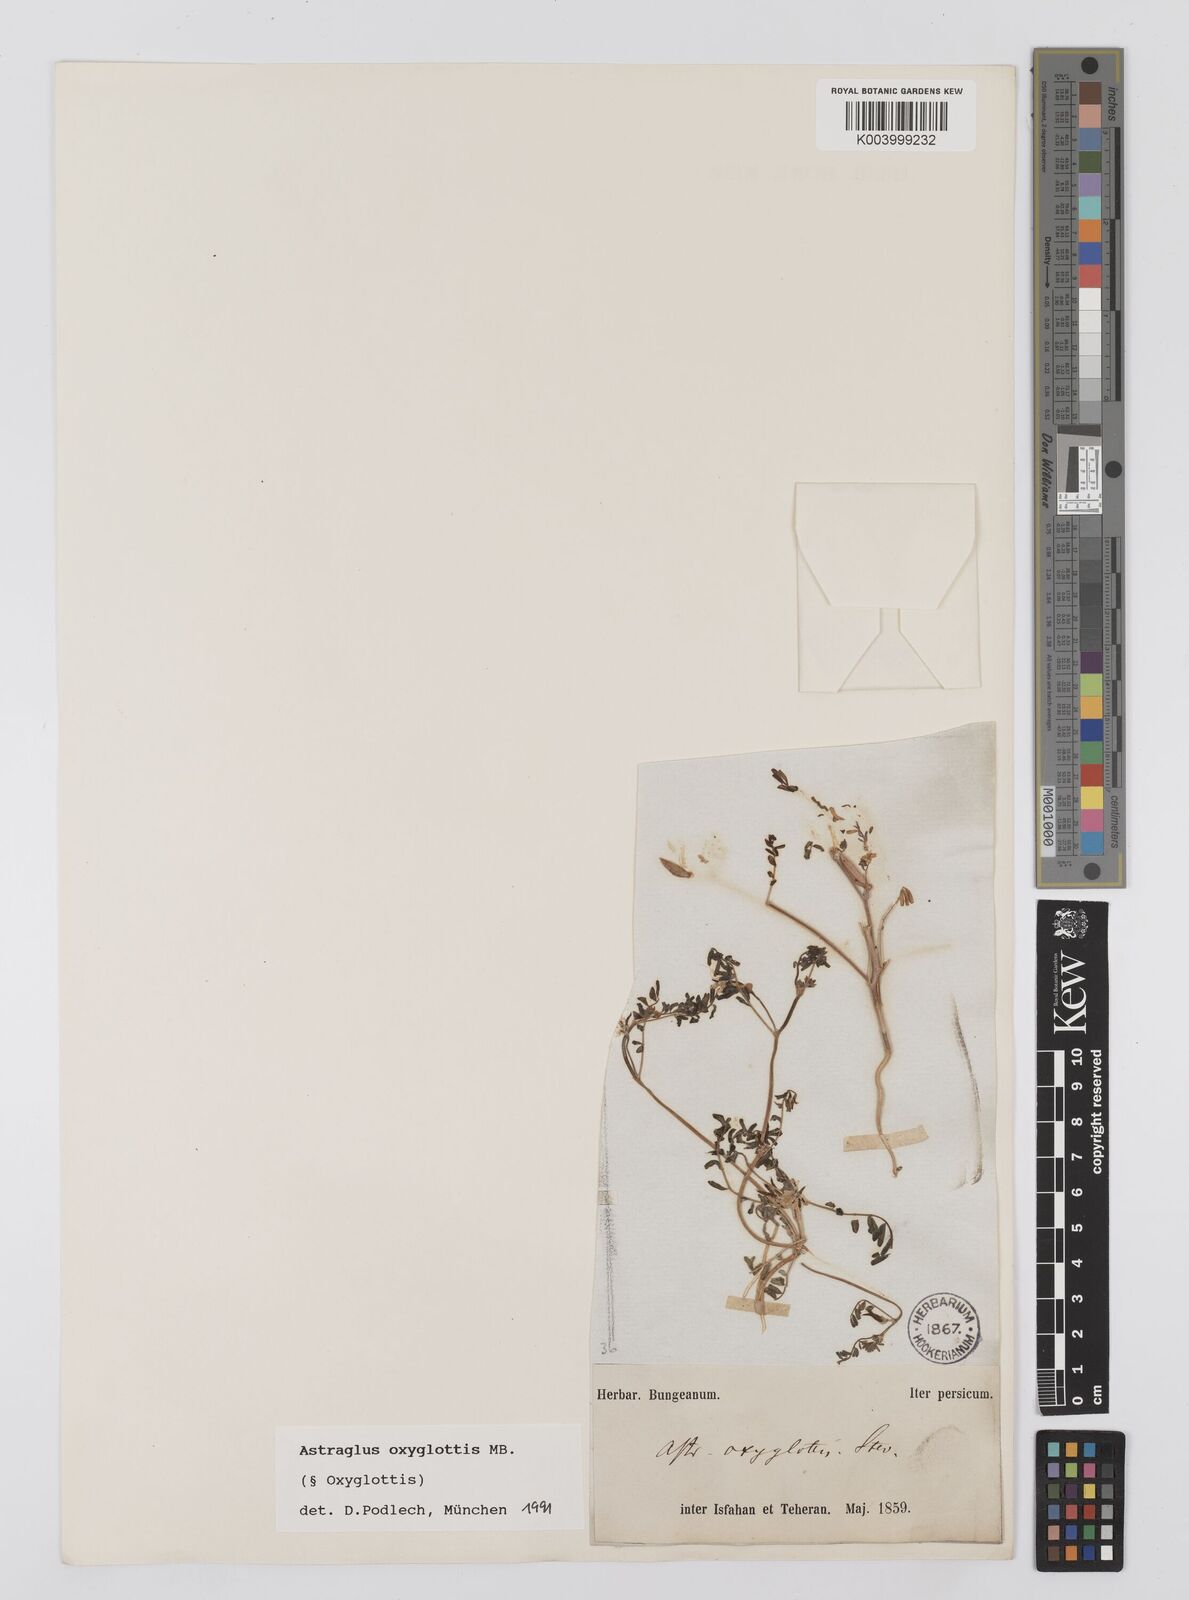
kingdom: Plantae
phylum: Tracheophyta
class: Magnoliopsida
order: Fabales
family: Fabaceae
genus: Astragalus
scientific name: Astragalus oxyglottis
